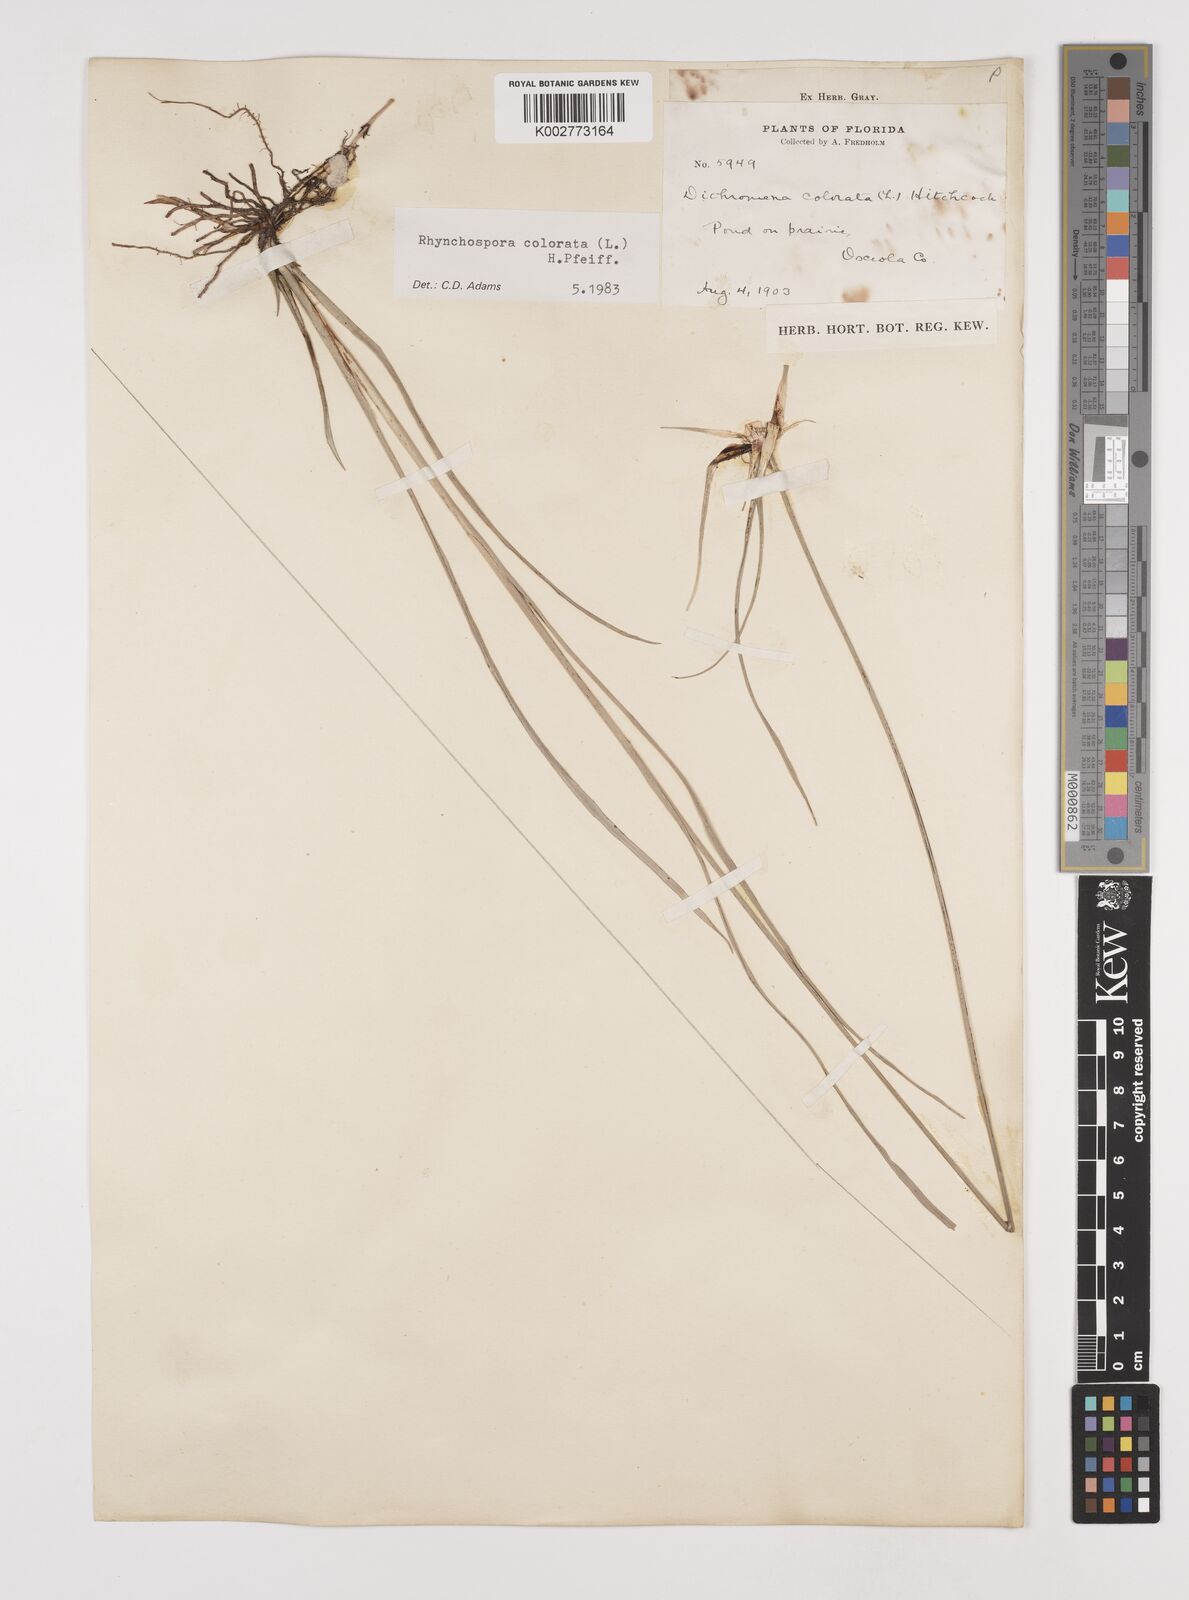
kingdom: Plantae
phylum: Tracheophyta
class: Liliopsida
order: Poales
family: Cyperaceae
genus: Rhynchospora
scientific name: Rhynchospora colorata
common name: Star sedge
